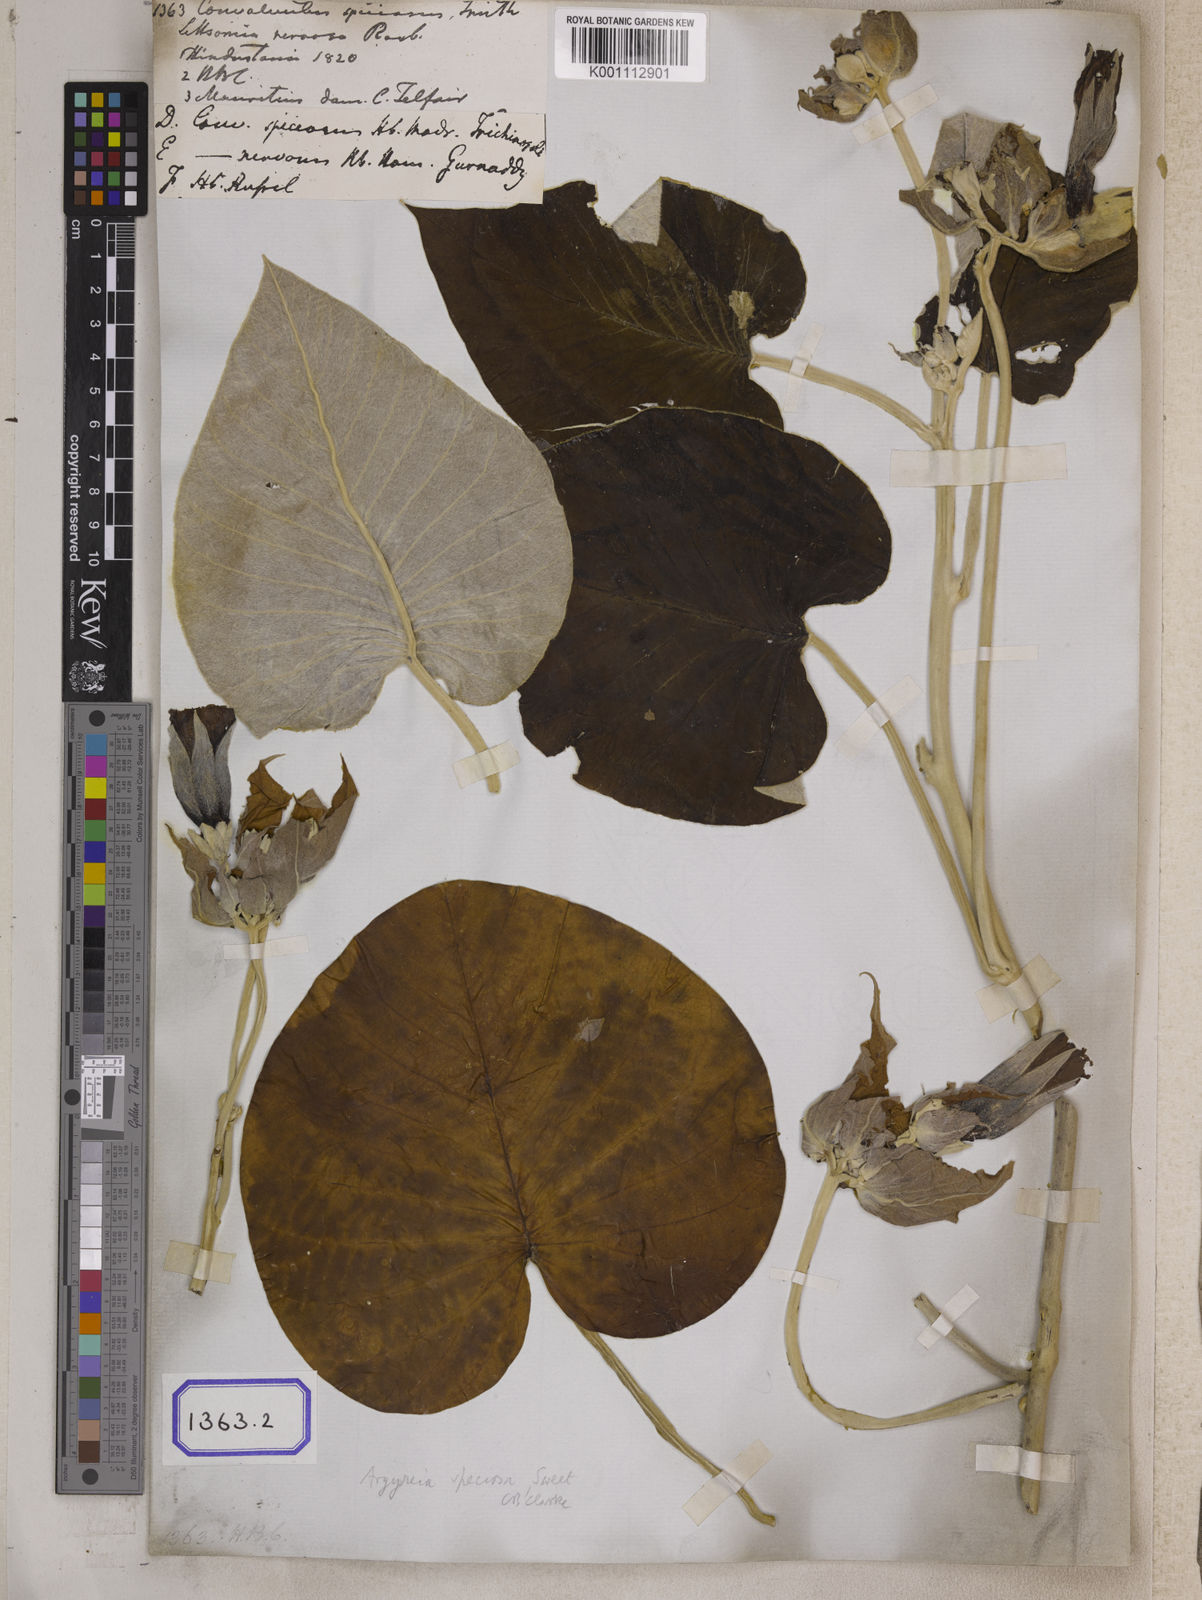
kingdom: Plantae
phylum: Tracheophyta
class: Magnoliopsida
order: Solanales
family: Convolvulaceae
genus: Convolvulus
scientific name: Convolvulus
